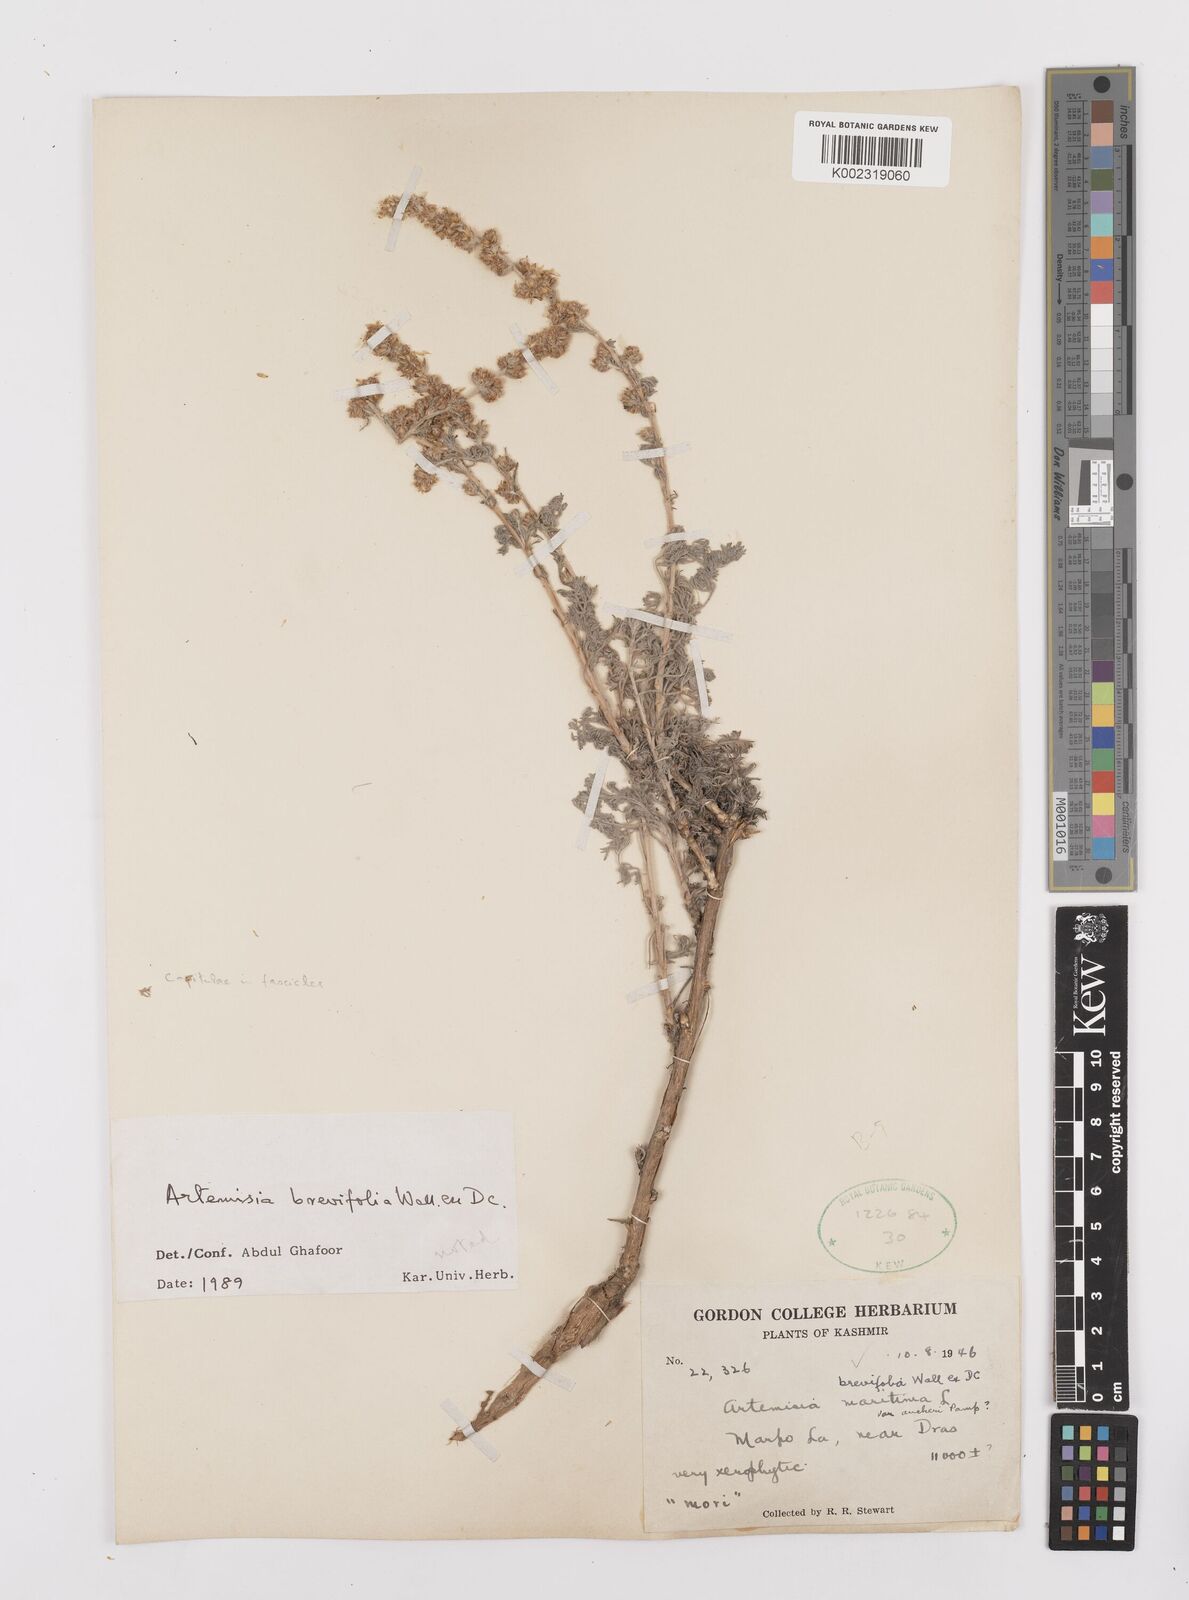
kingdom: Plantae
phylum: Tracheophyta
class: Magnoliopsida
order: Asterales
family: Asteraceae
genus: Artemisia
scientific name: Artemisia brevifolia
